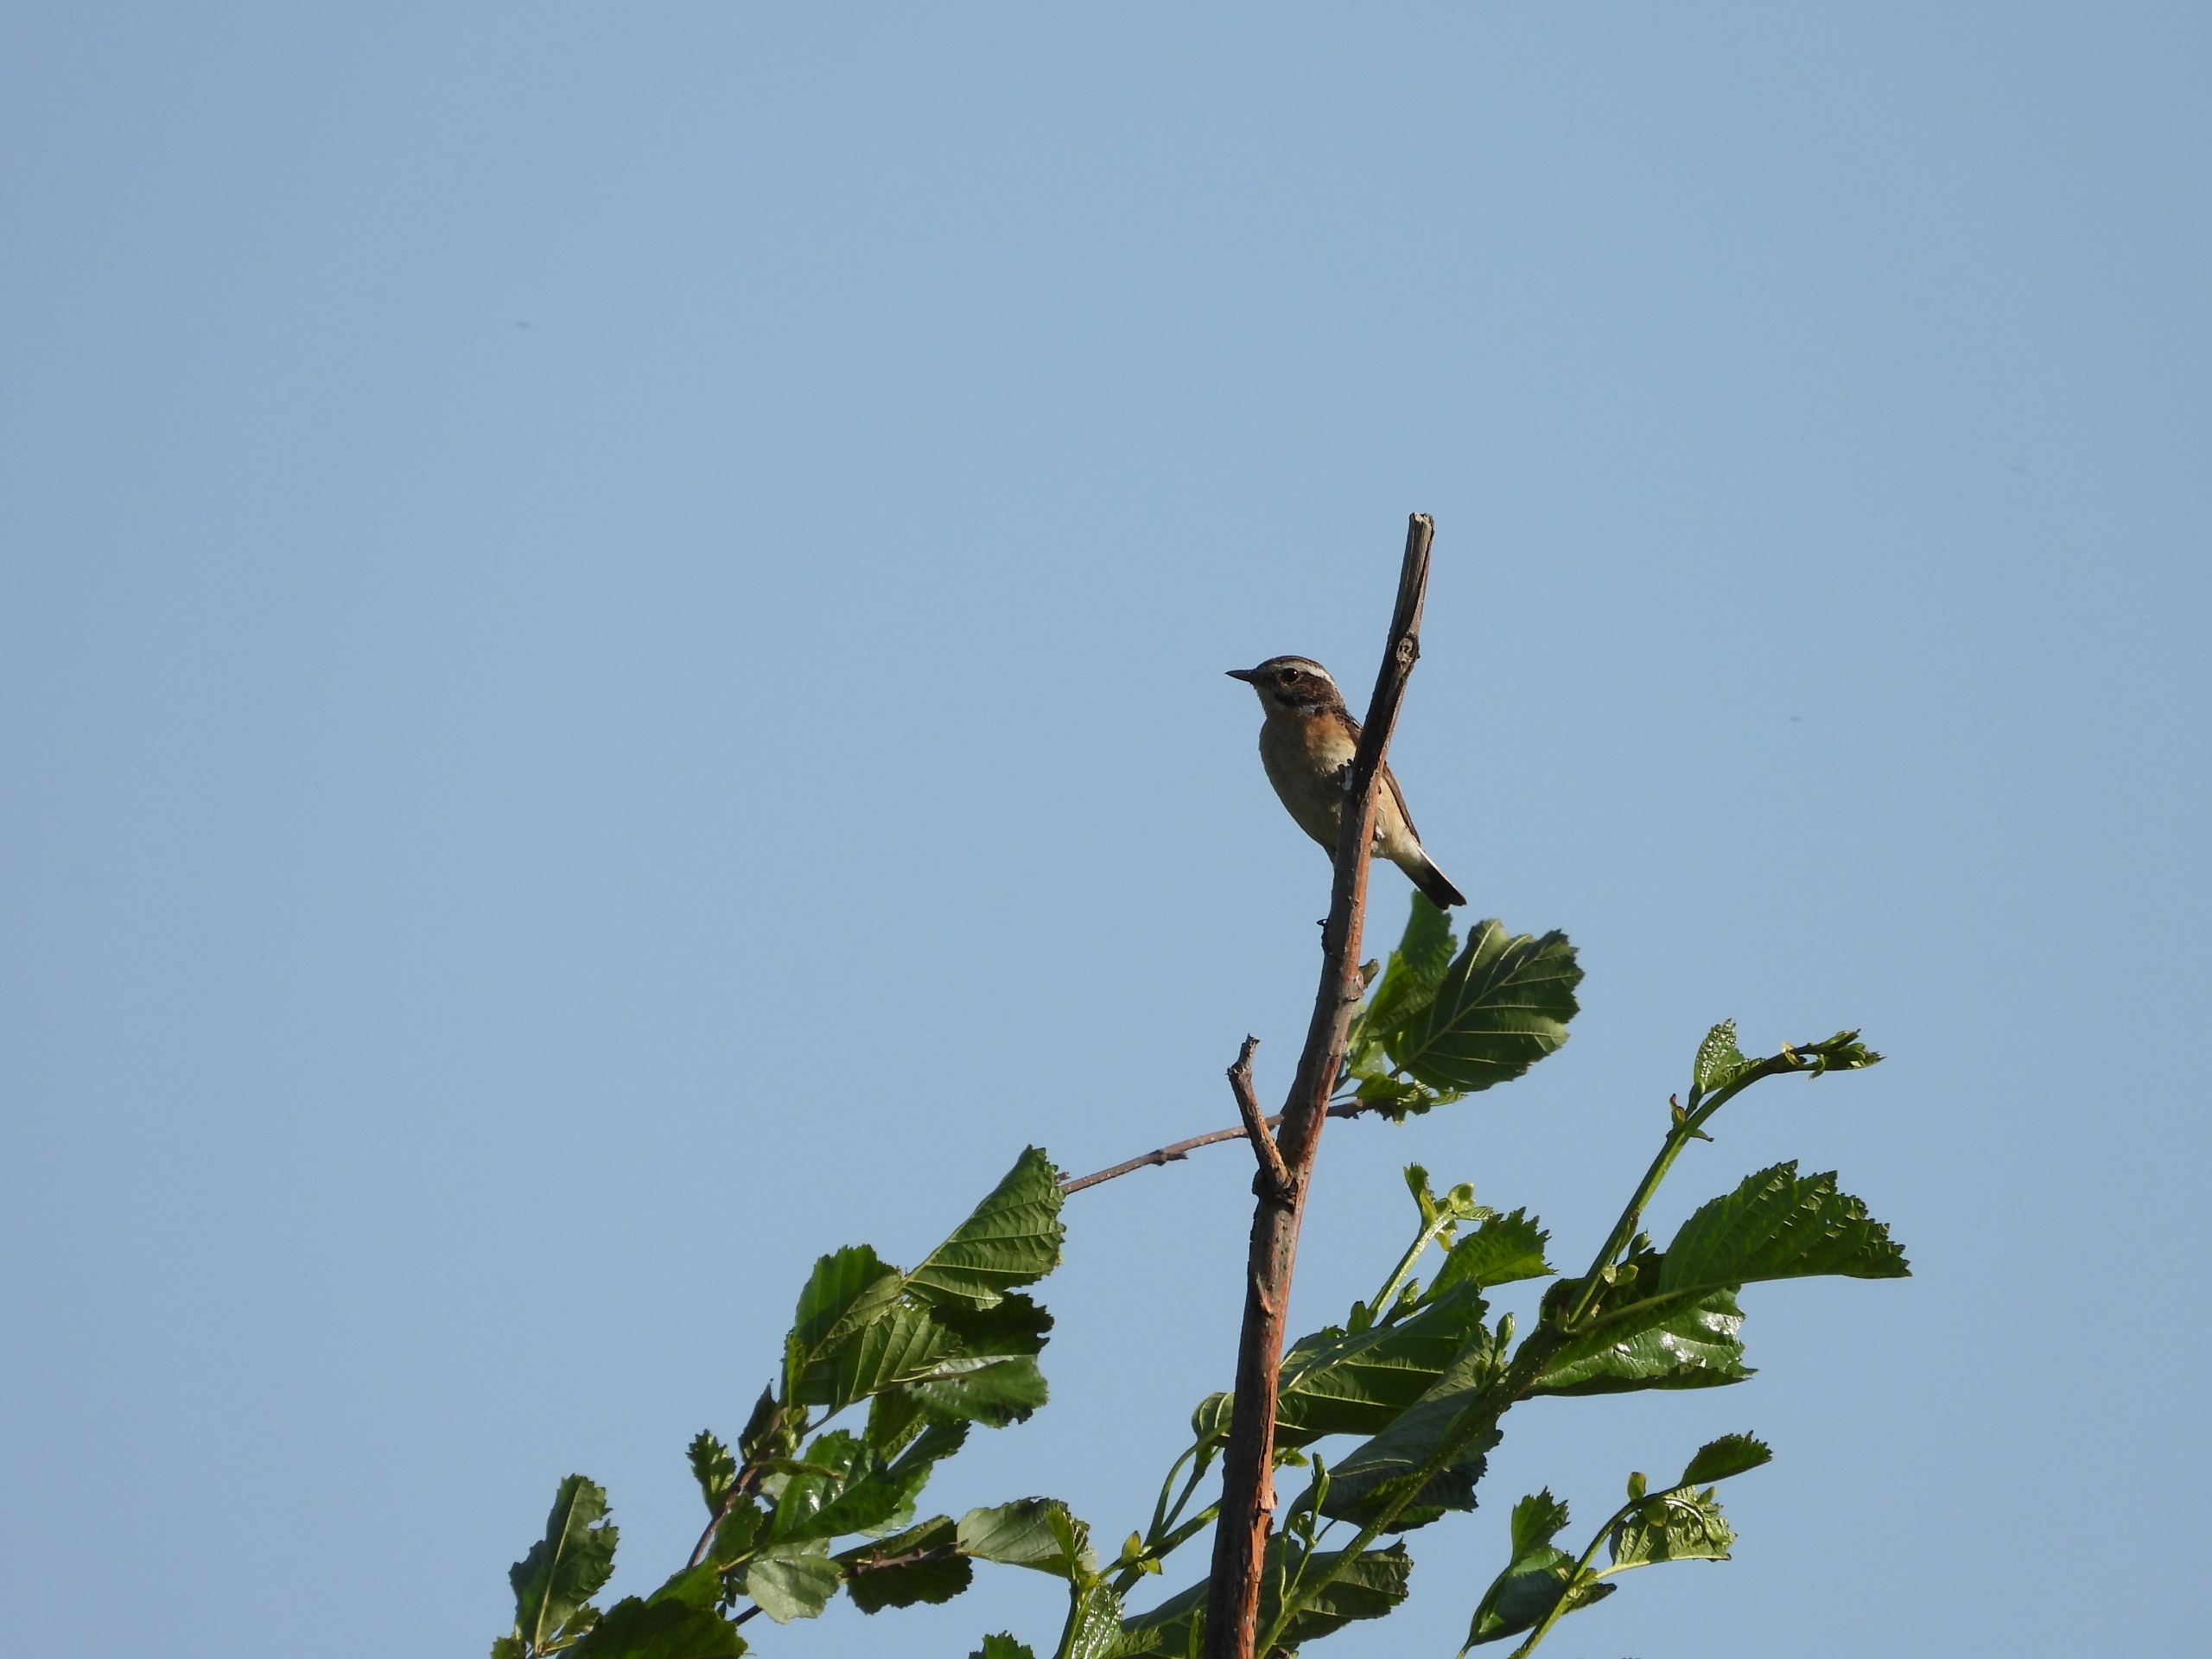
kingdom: Animalia
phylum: Chordata
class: Aves
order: Passeriformes
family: Muscicapidae
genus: Saxicola
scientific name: Saxicola rubetra
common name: Bynkefugl
